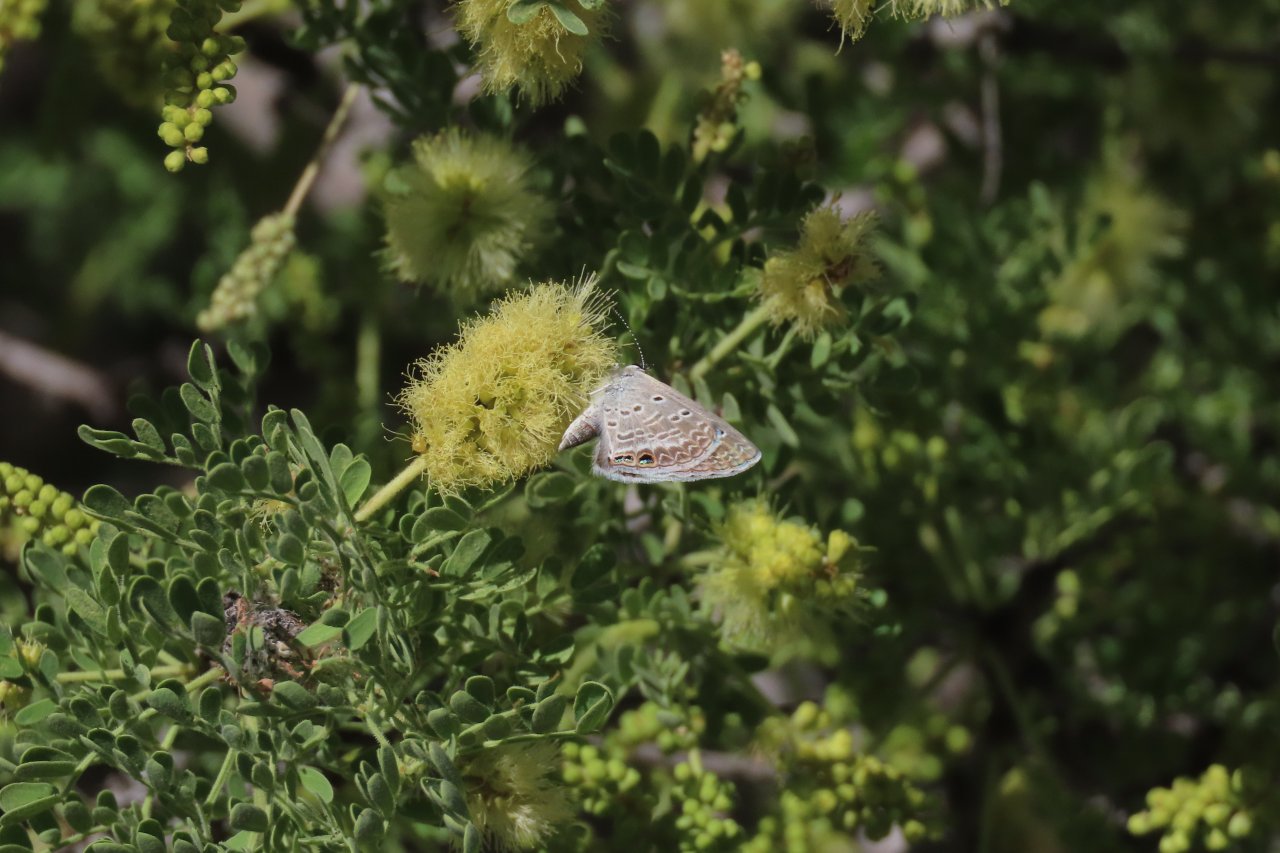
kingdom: Animalia
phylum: Arthropoda
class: Insecta
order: Lepidoptera
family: Lycaenidae
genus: Echinargus
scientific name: Echinargus isola
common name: Reakirt's Blue
